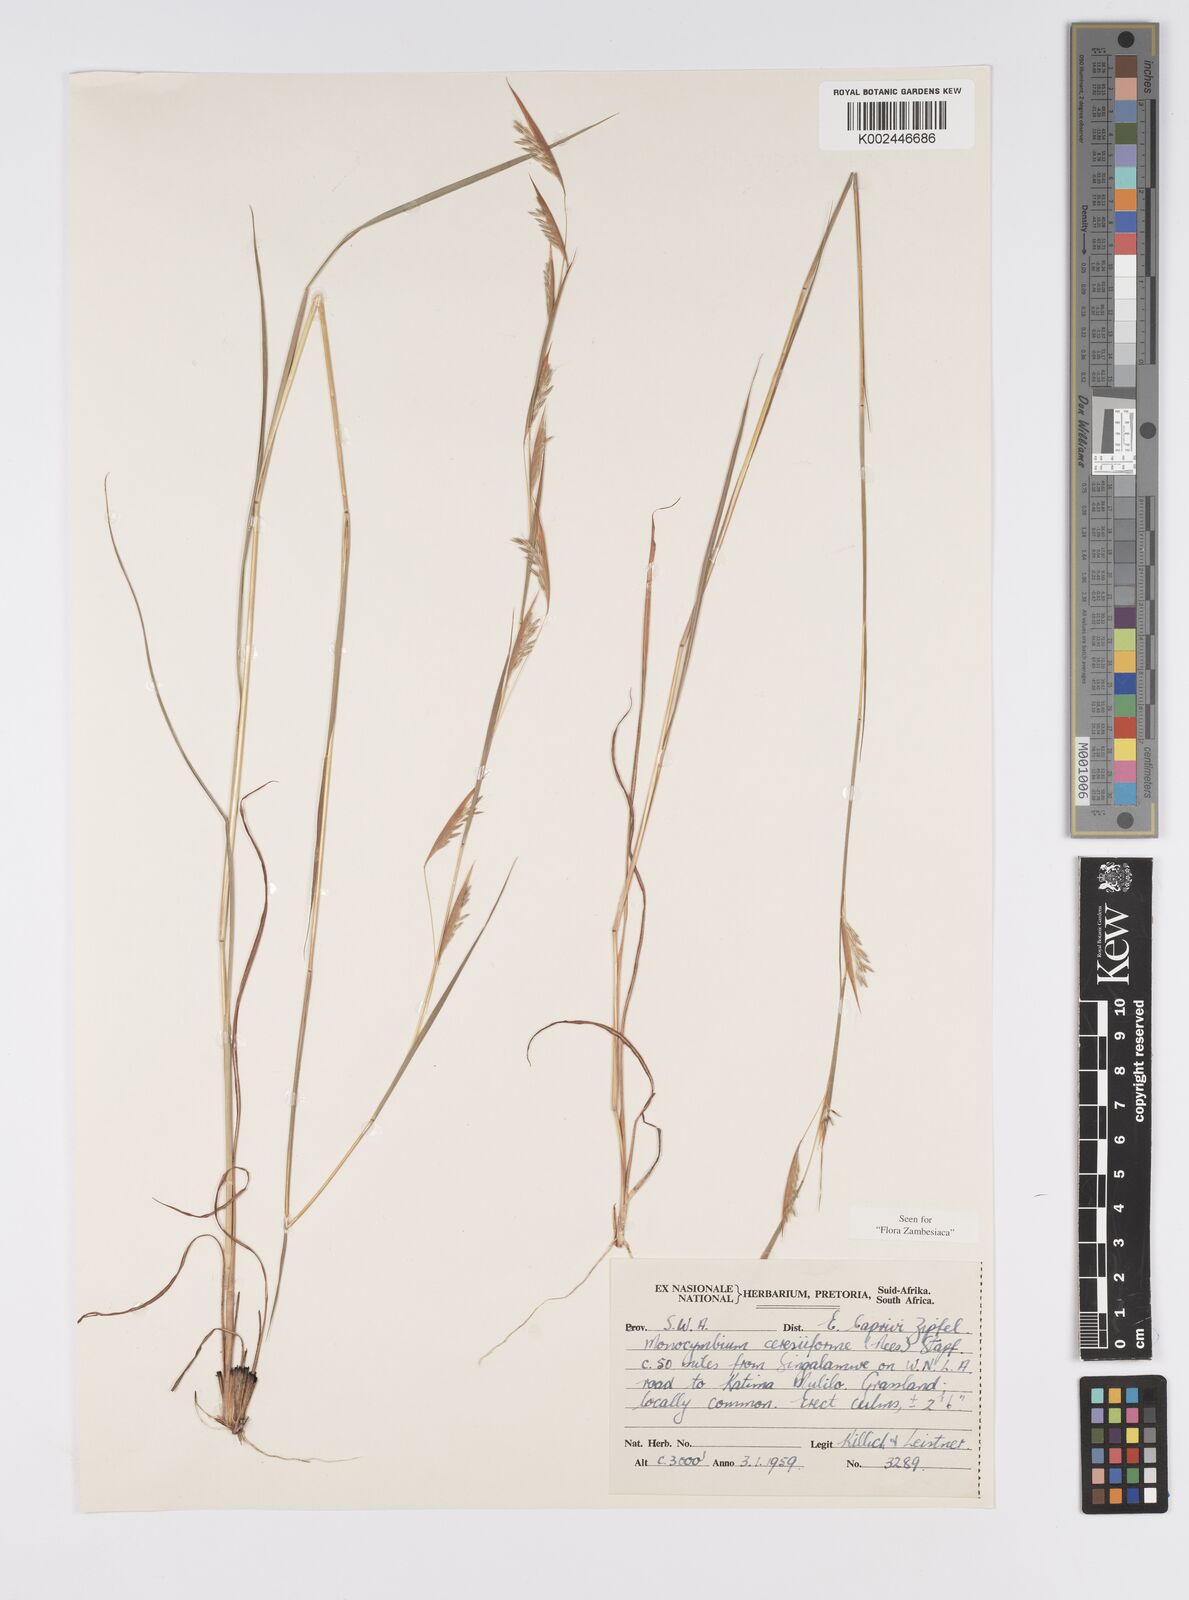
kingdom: Plantae
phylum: Tracheophyta
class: Liliopsida
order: Poales
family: Poaceae
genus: Monocymbium
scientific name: Monocymbium ceresiiforme
